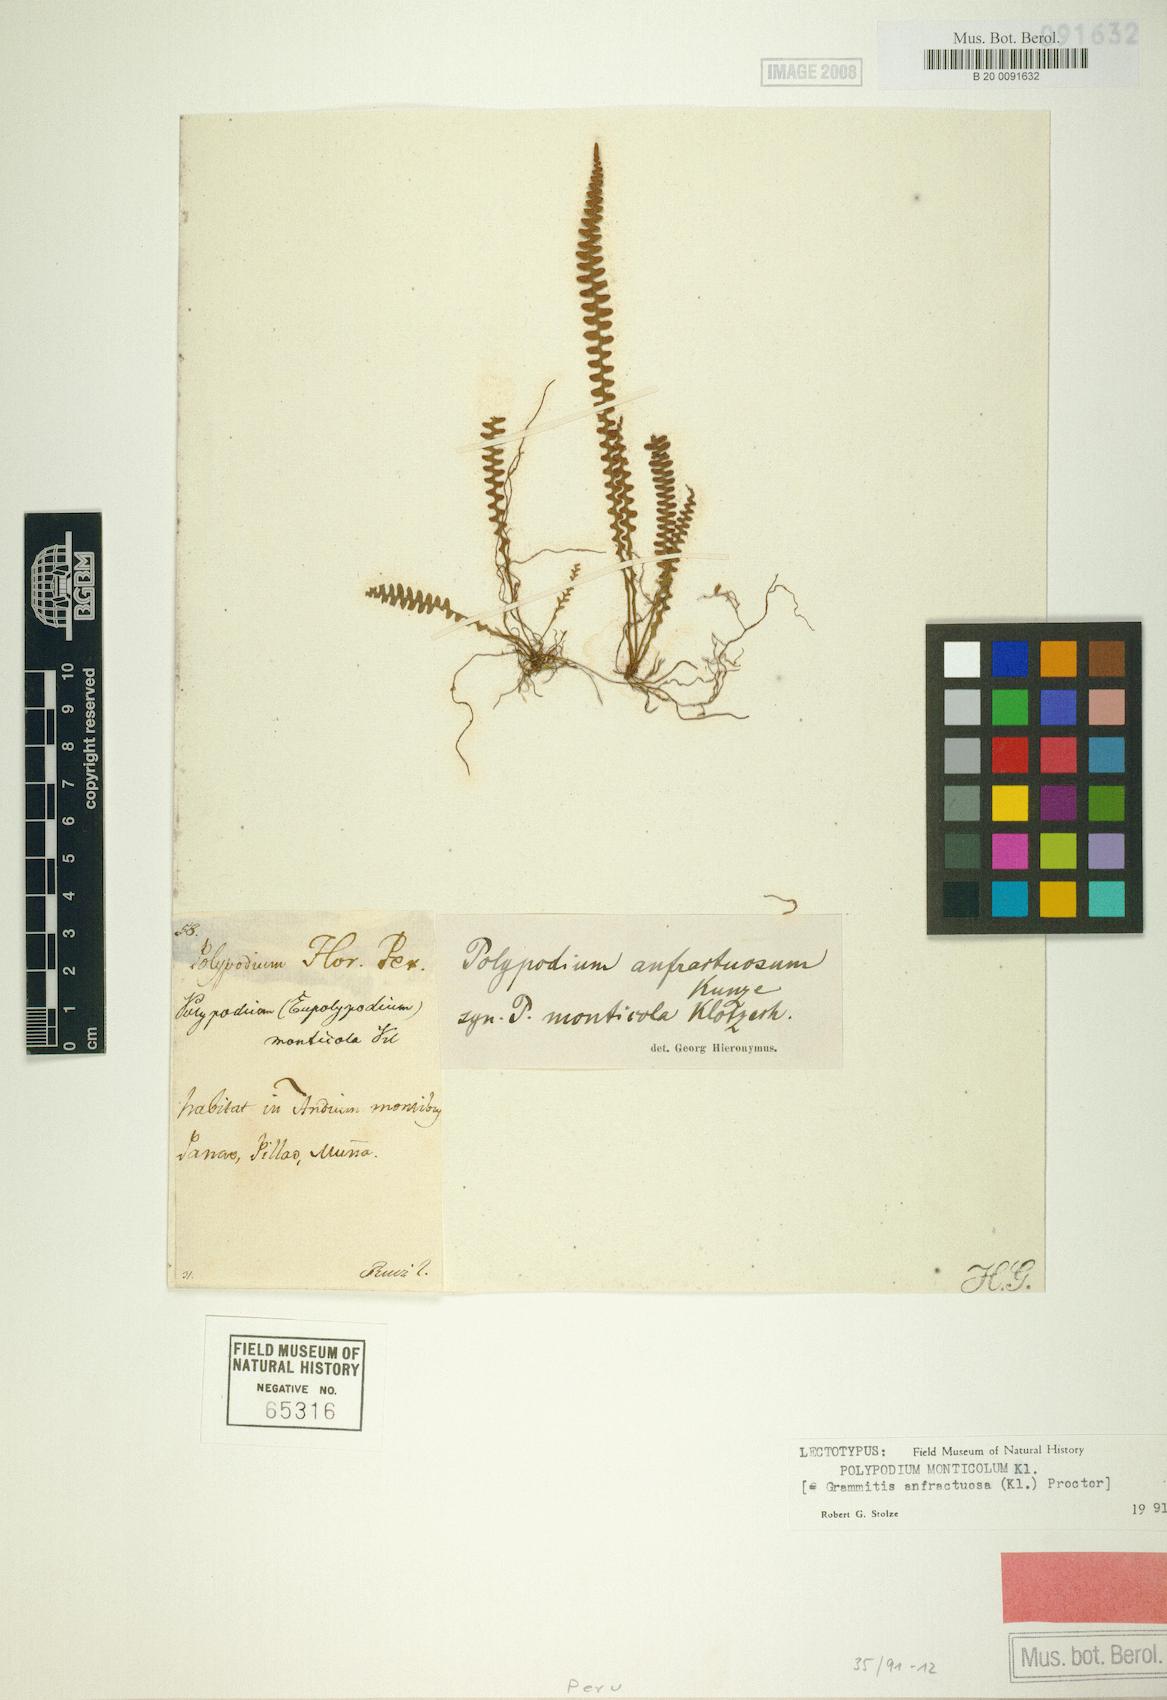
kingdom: Plantae
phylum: Tracheophyta
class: Polypodiopsida
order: Polypodiales
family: Polypodiaceae
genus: Ascogrammitis
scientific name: Ascogrammitis anfractuosa
